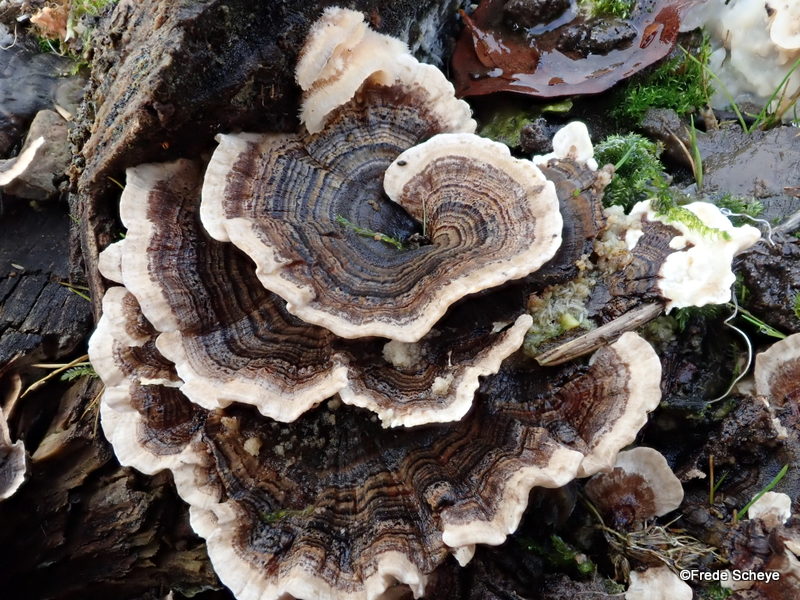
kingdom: Fungi
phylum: Basidiomycota
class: Agaricomycetes
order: Polyporales
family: Polyporaceae
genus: Trametes
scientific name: Trametes versicolor
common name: broget læderporesvamp
